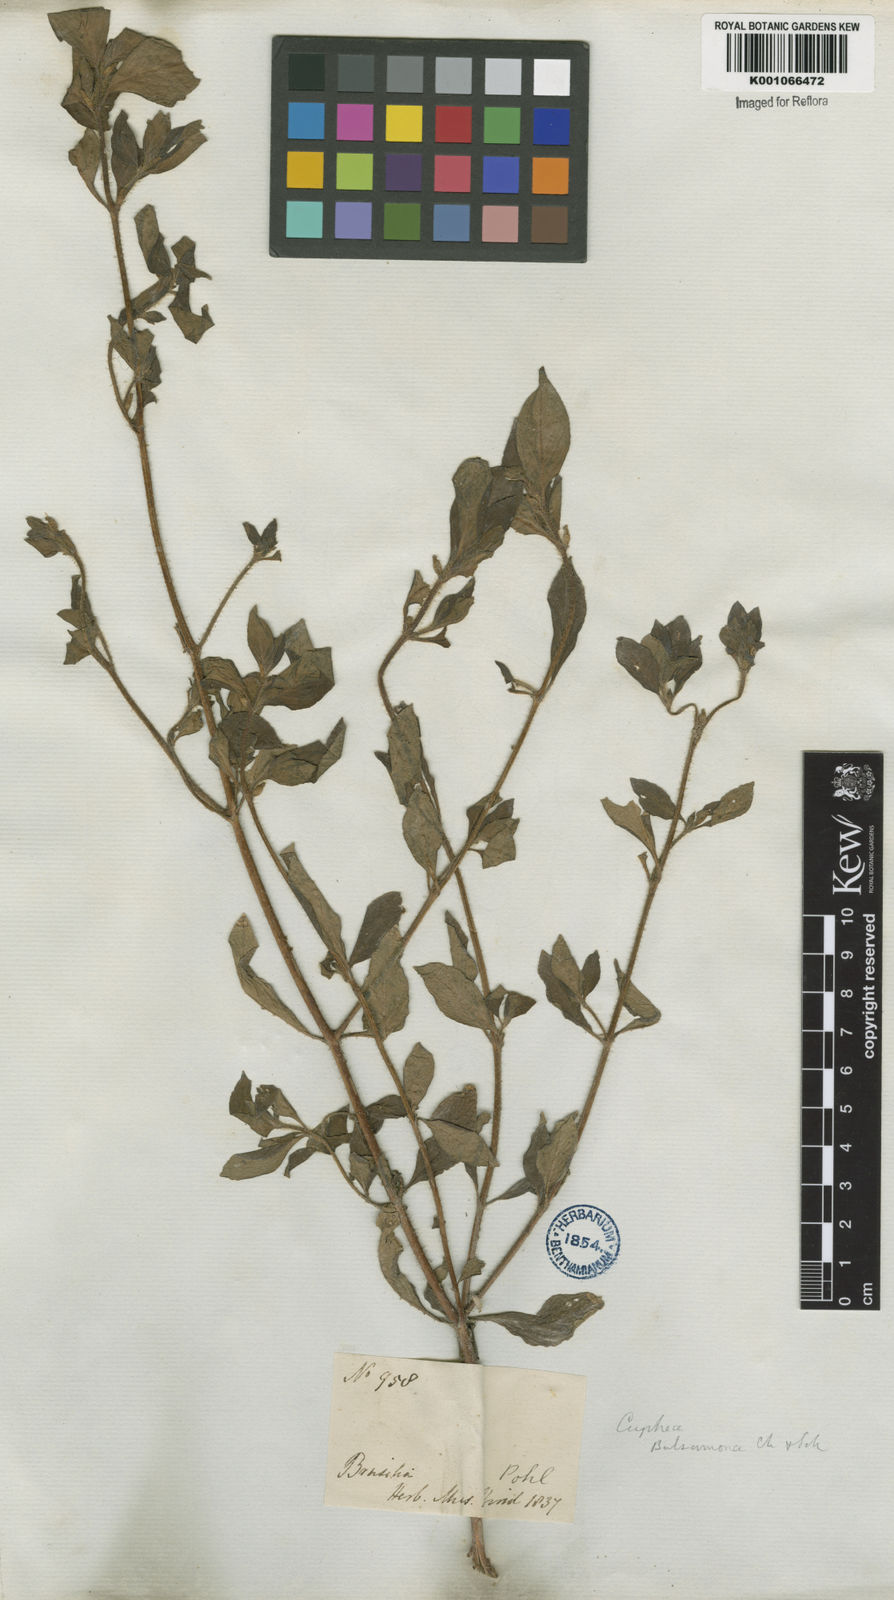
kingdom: Plantae
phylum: Tracheophyta
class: Magnoliopsida
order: Myrtales
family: Lythraceae
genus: Cuphea
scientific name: Cuphea carthagenensis
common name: Colombian waxweed
